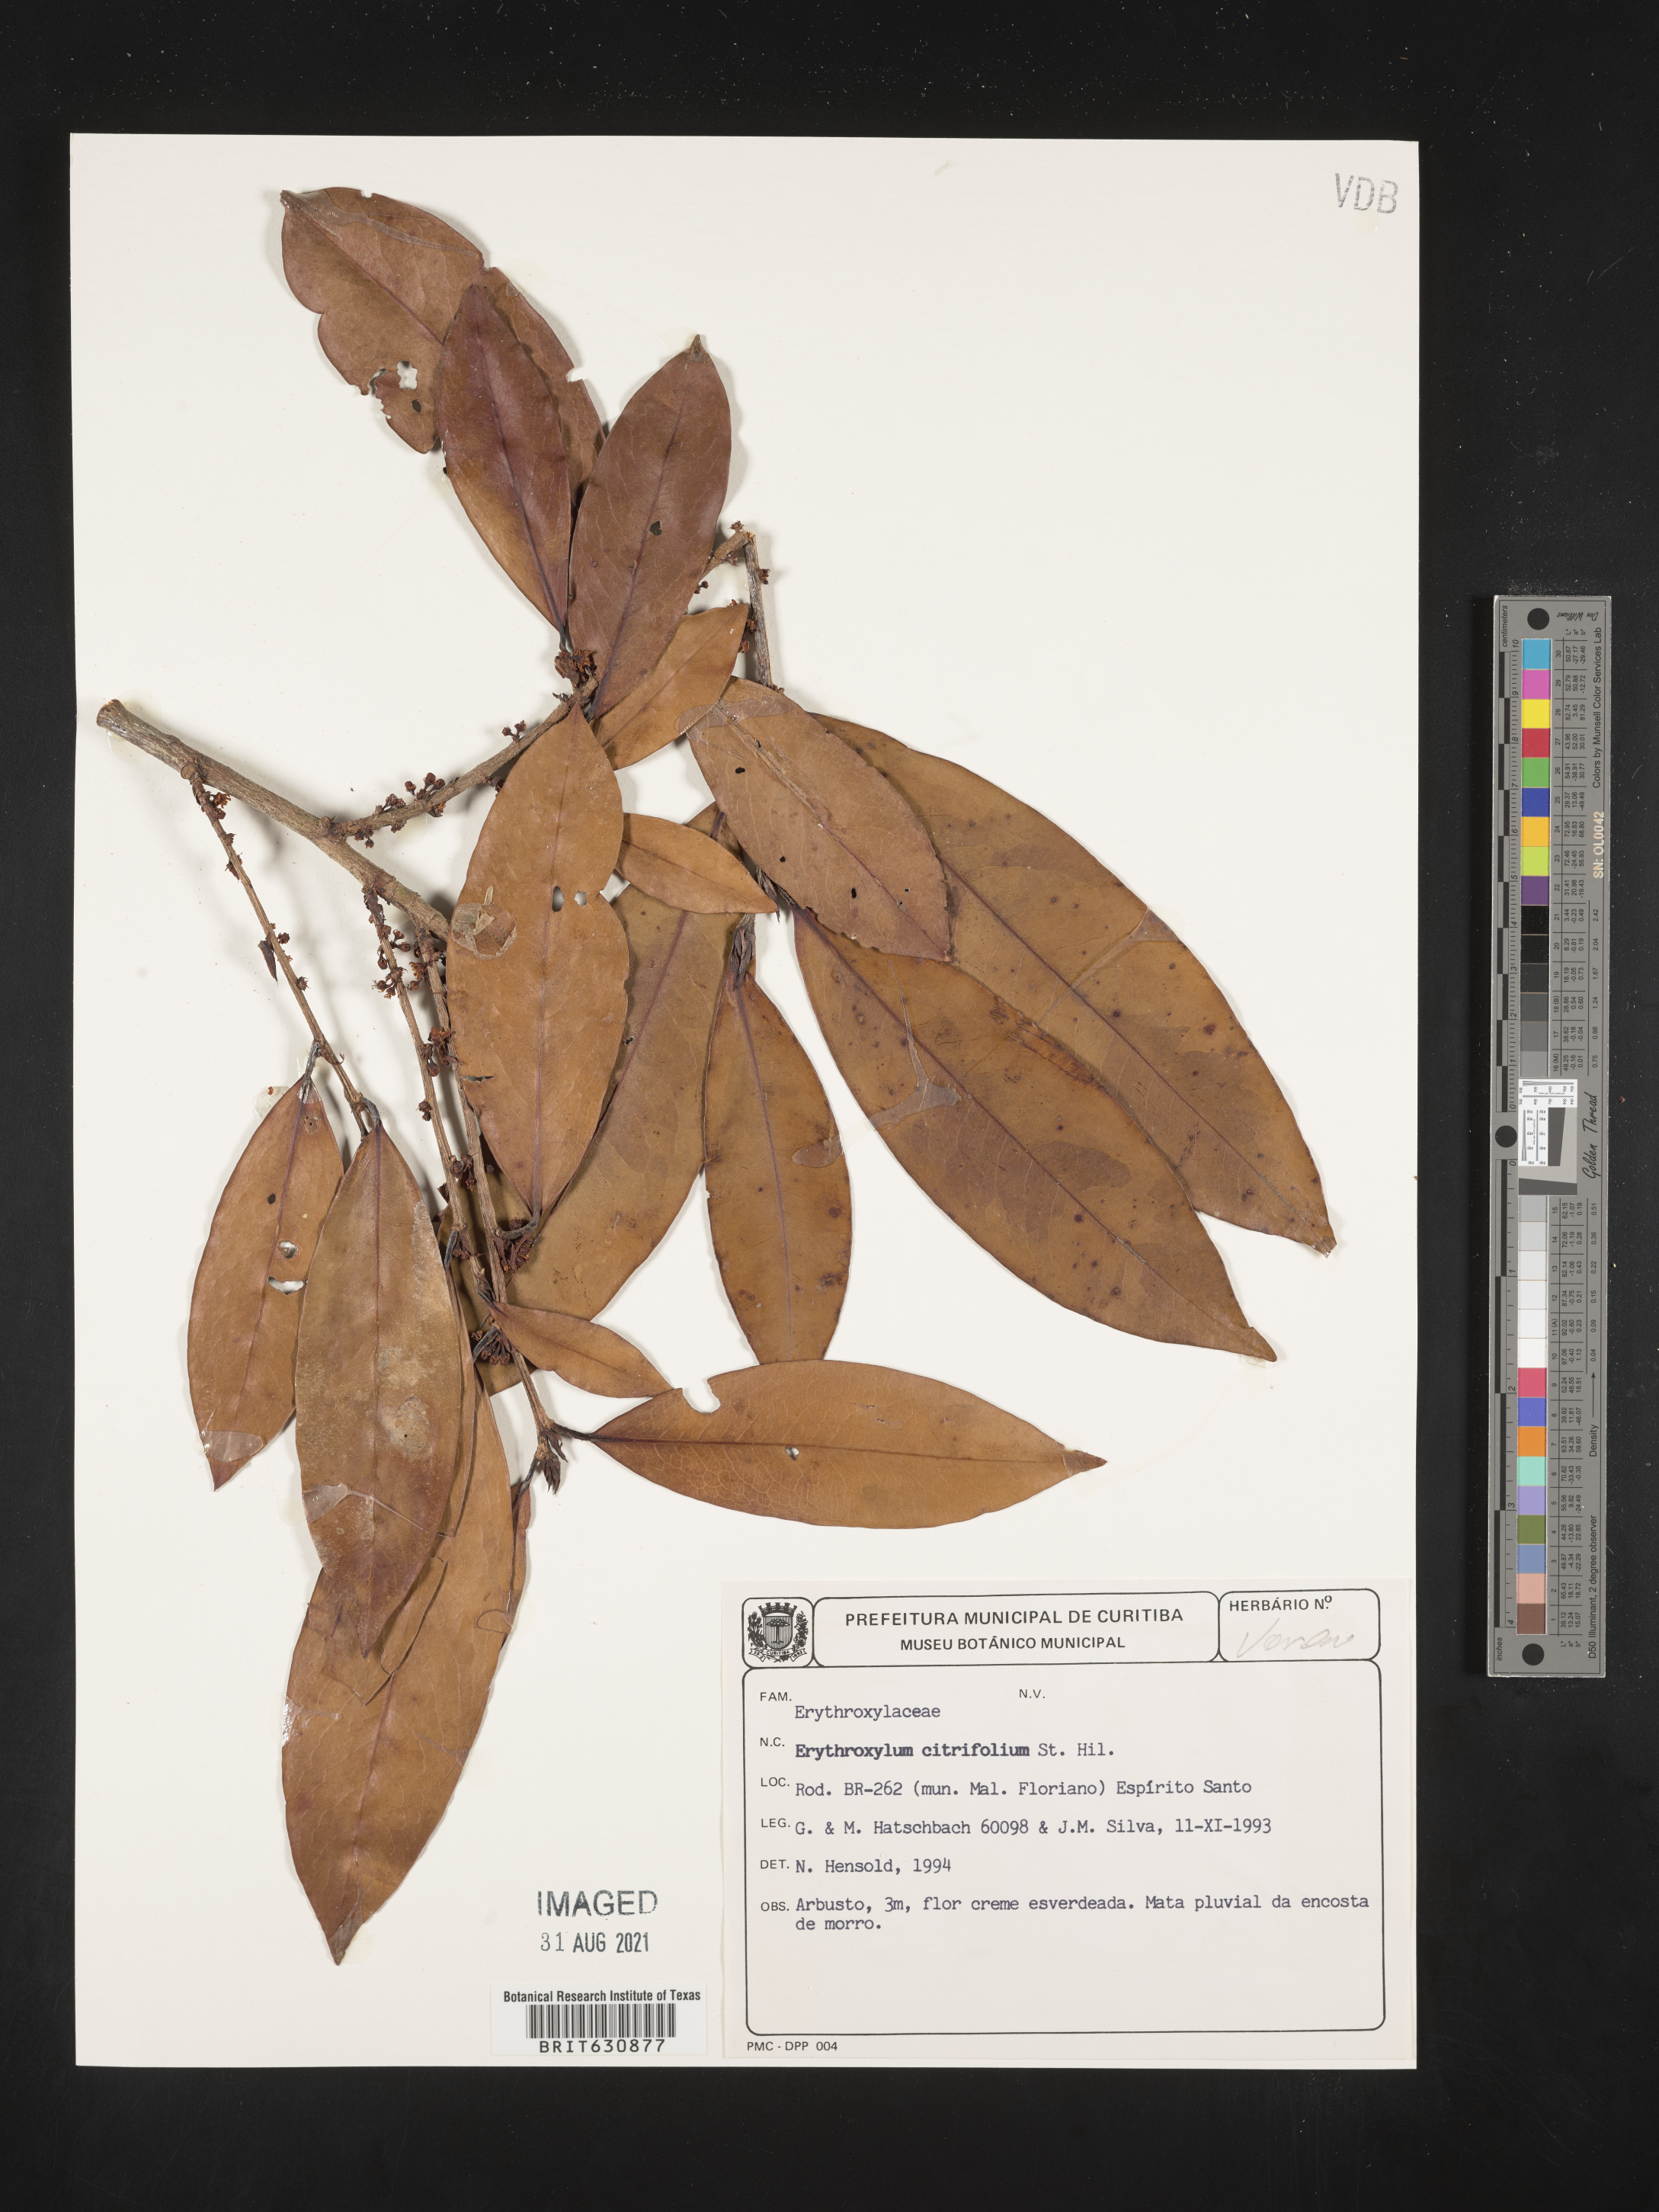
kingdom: Plantae
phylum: Tracheophyta
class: Magnoliopsida
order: Malpighiales
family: Erythroxylaceae
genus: Erythroxylum
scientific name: Erythroxylum
